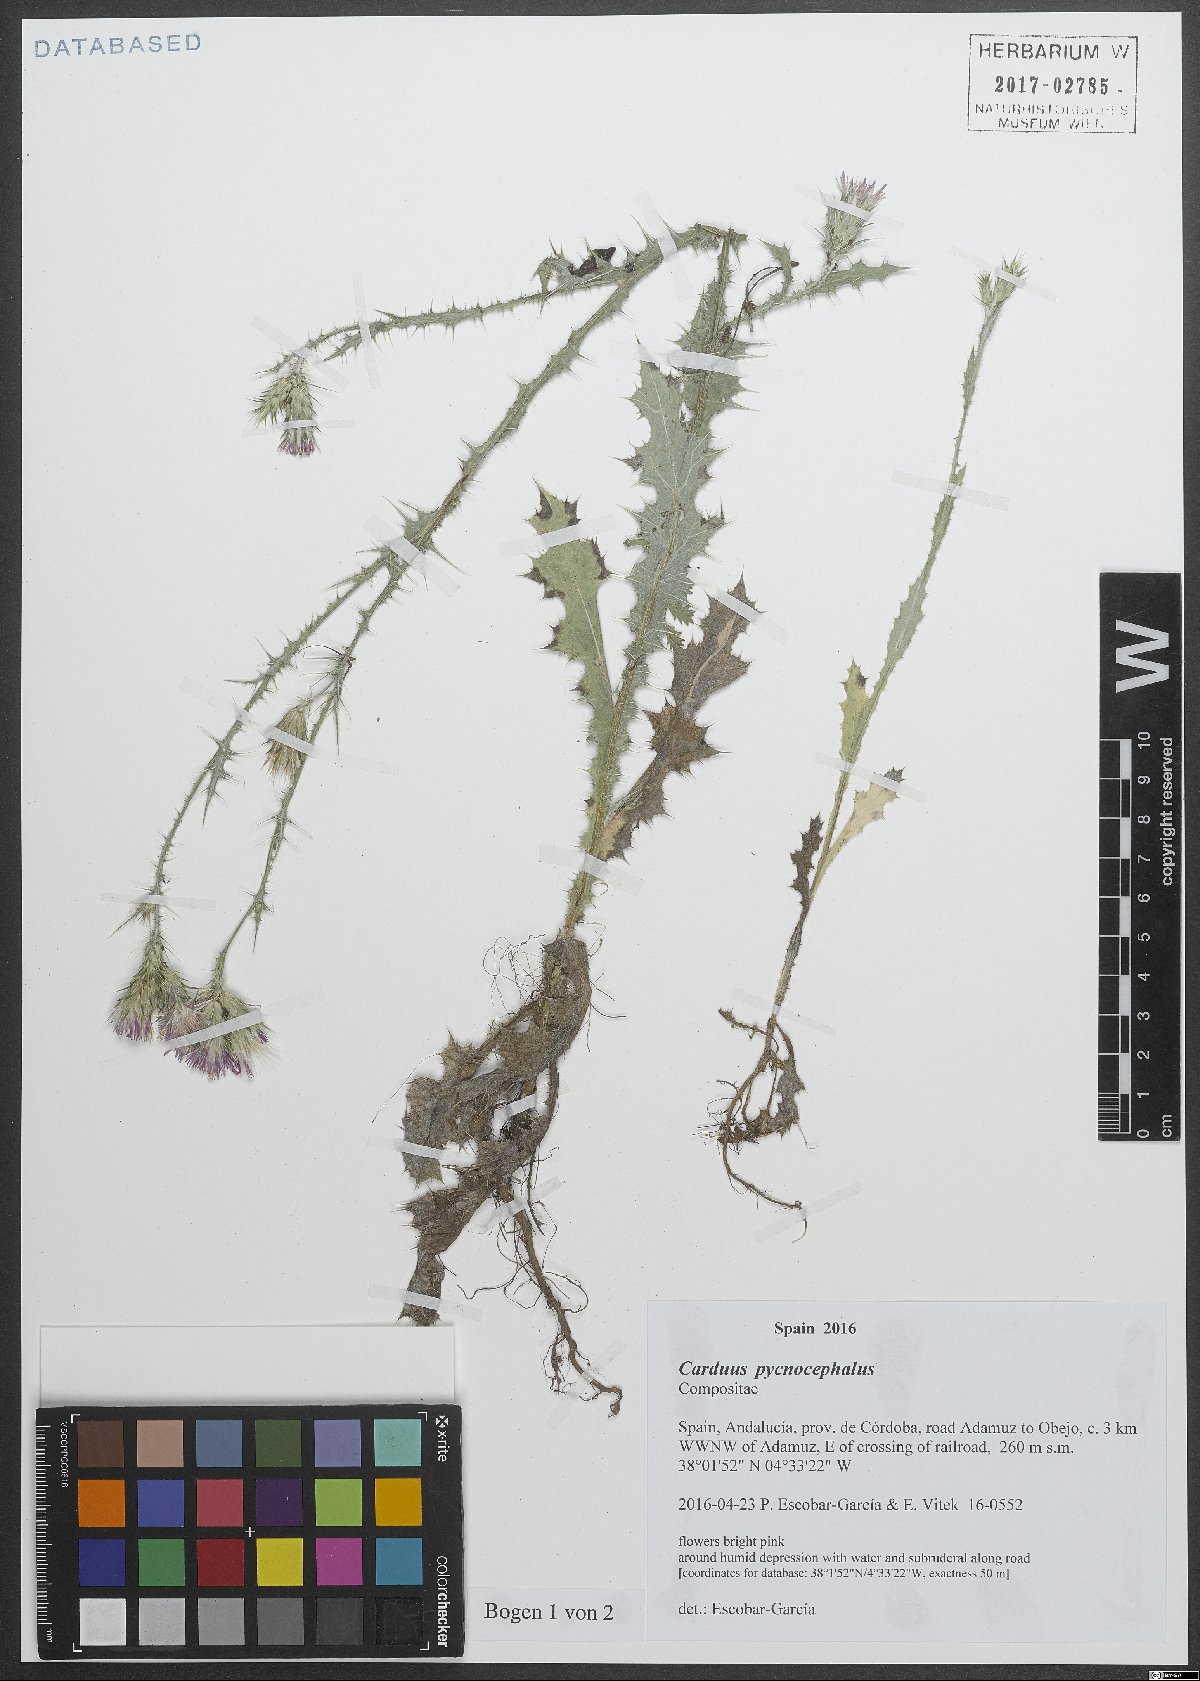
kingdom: Plantae
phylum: Tracheophyta
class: Magnoliopsida
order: Asterales
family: Asteraceae
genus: Carduus
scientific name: Carduus pycnocephalus
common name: Plymouth thistle
